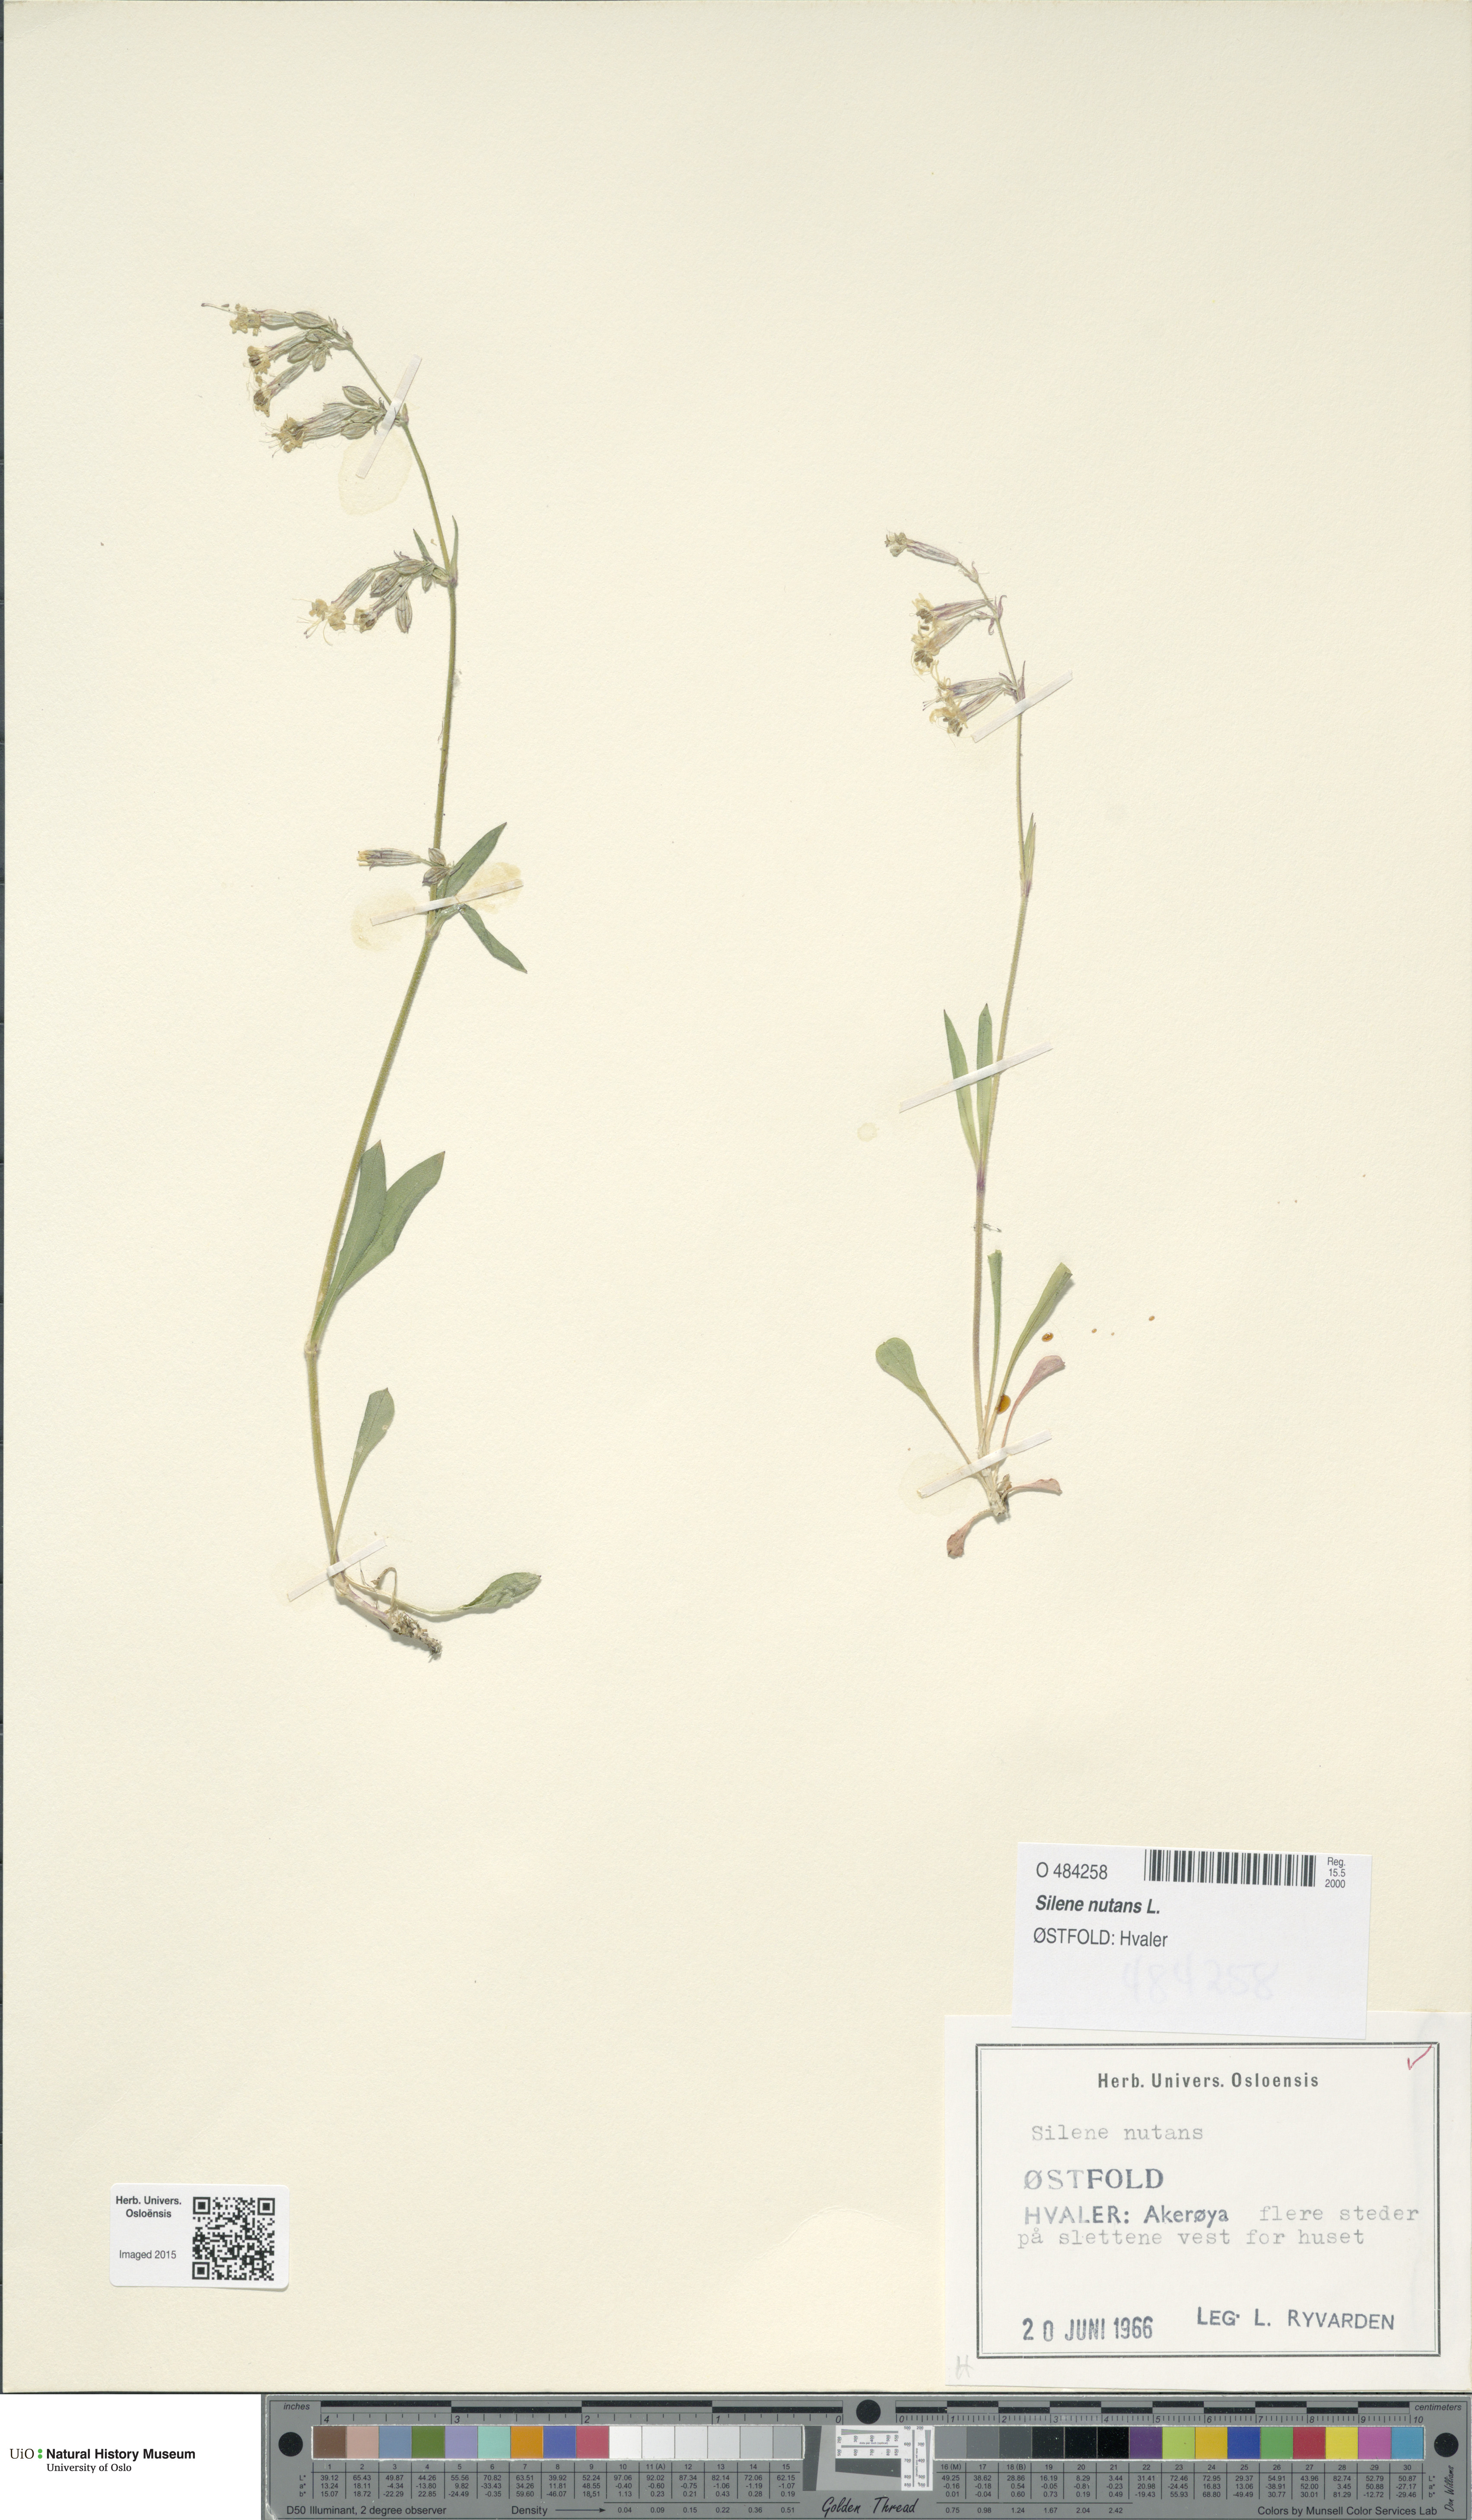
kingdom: Plantae
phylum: Tracheophyta
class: Magnoliopsida
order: Caryophyllales
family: Caryophyllaceae
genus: Silene
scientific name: Silene nutans
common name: Nottingham catchfly
